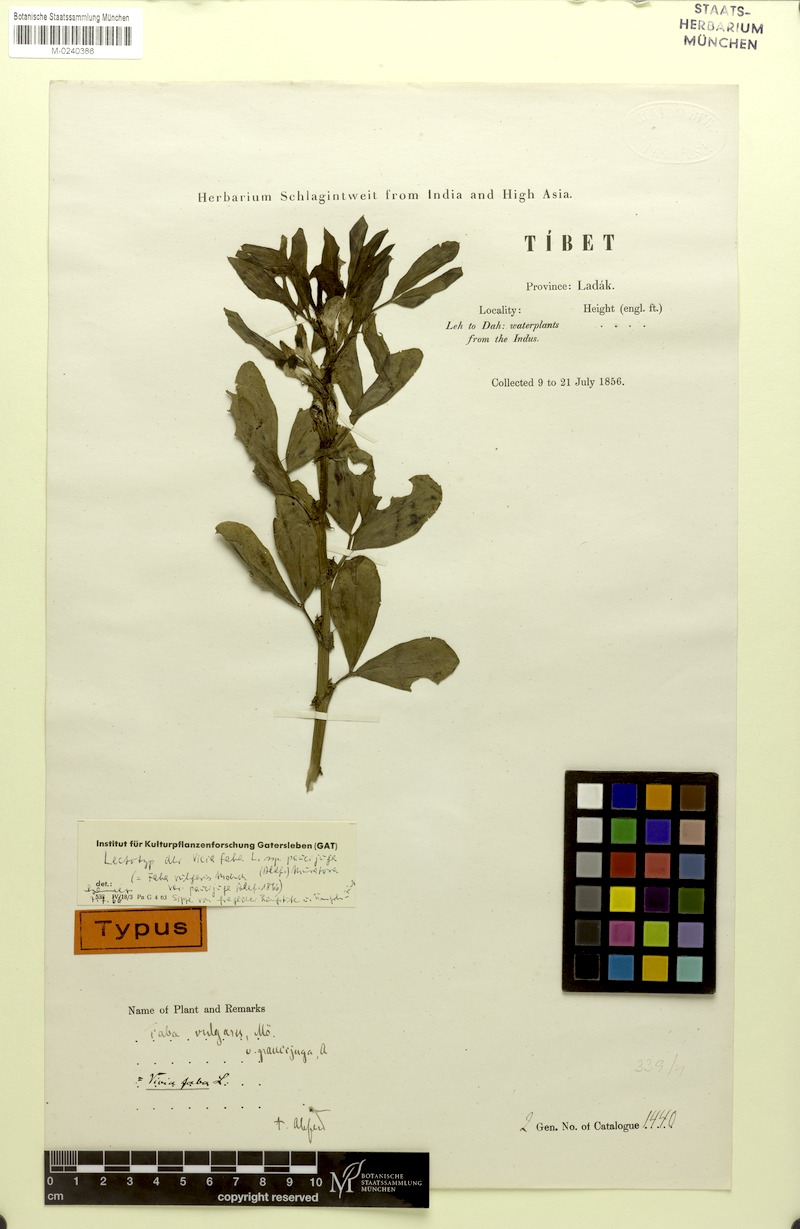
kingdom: Plantae
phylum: Tracheophyta
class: Magnoliopsida
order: Fabales
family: Fabaceae
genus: Vicia
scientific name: Vicia faba
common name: Broad bean
